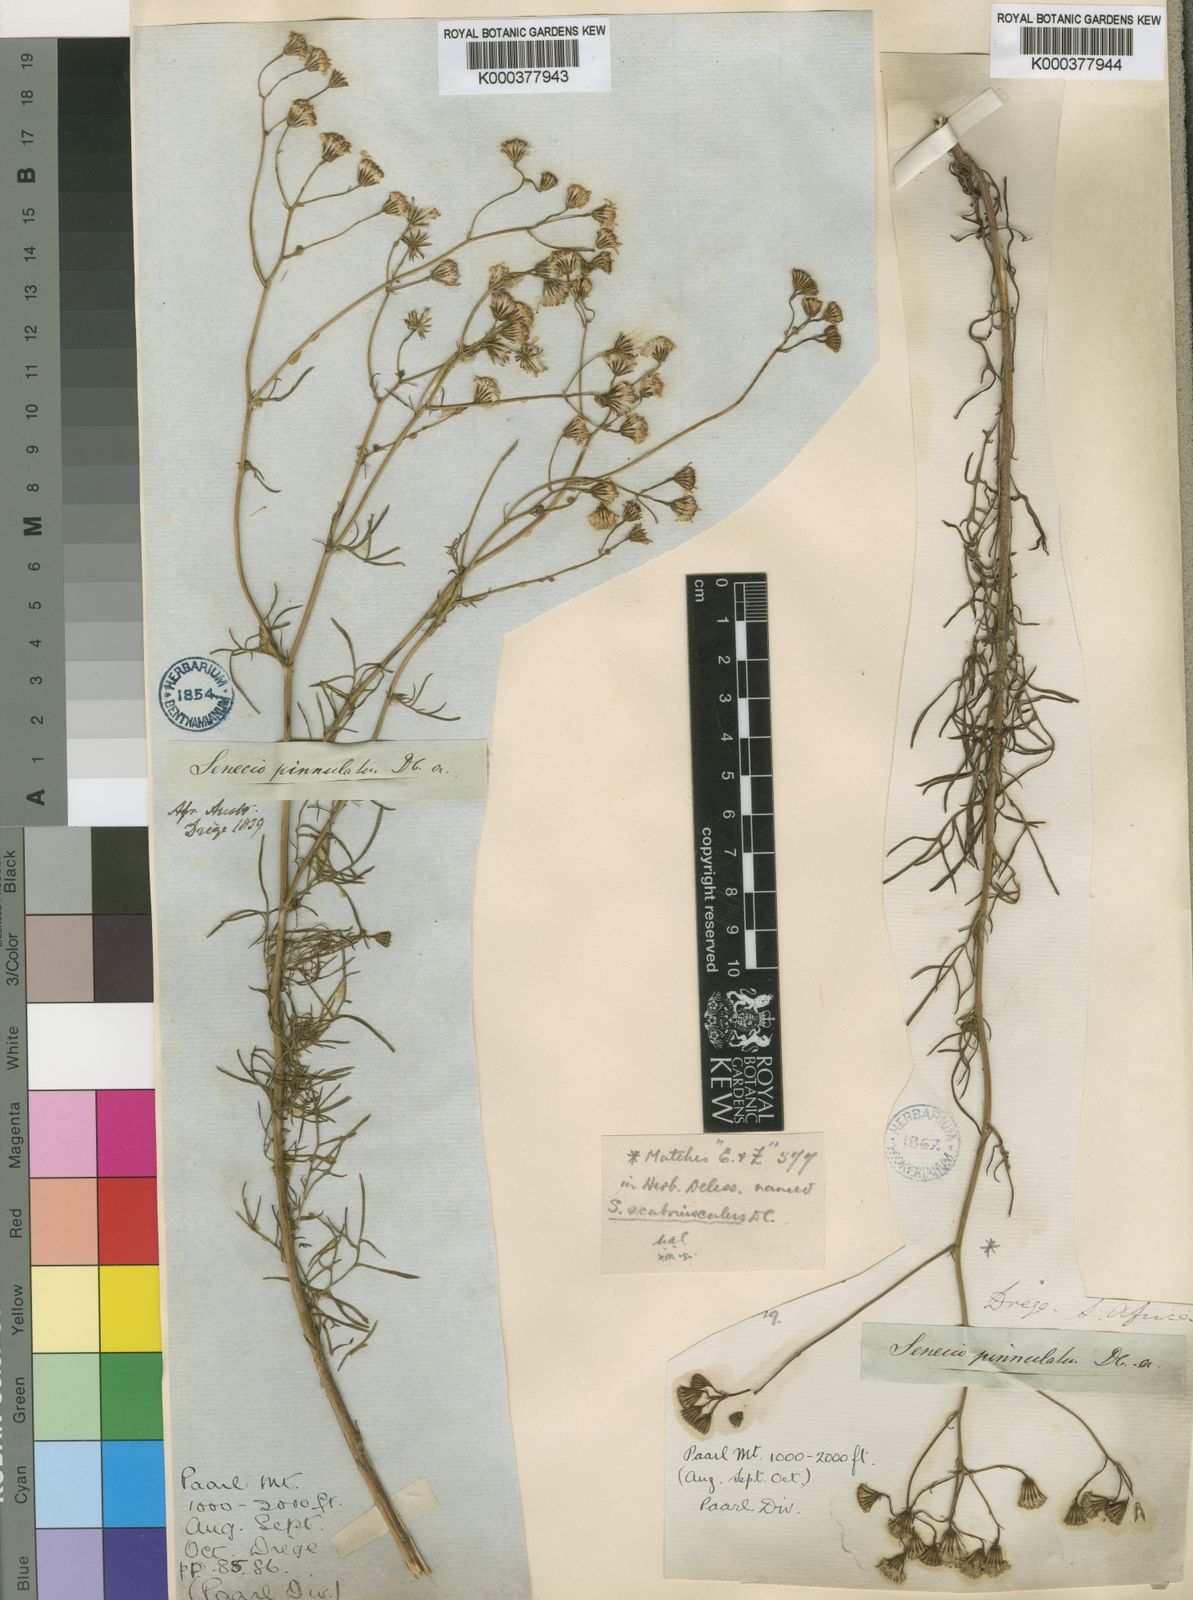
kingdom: Plantae
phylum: Tracheophyta
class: Magnoliopsida
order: Asterales
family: Asteraceae
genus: Senecio
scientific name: Senecio
